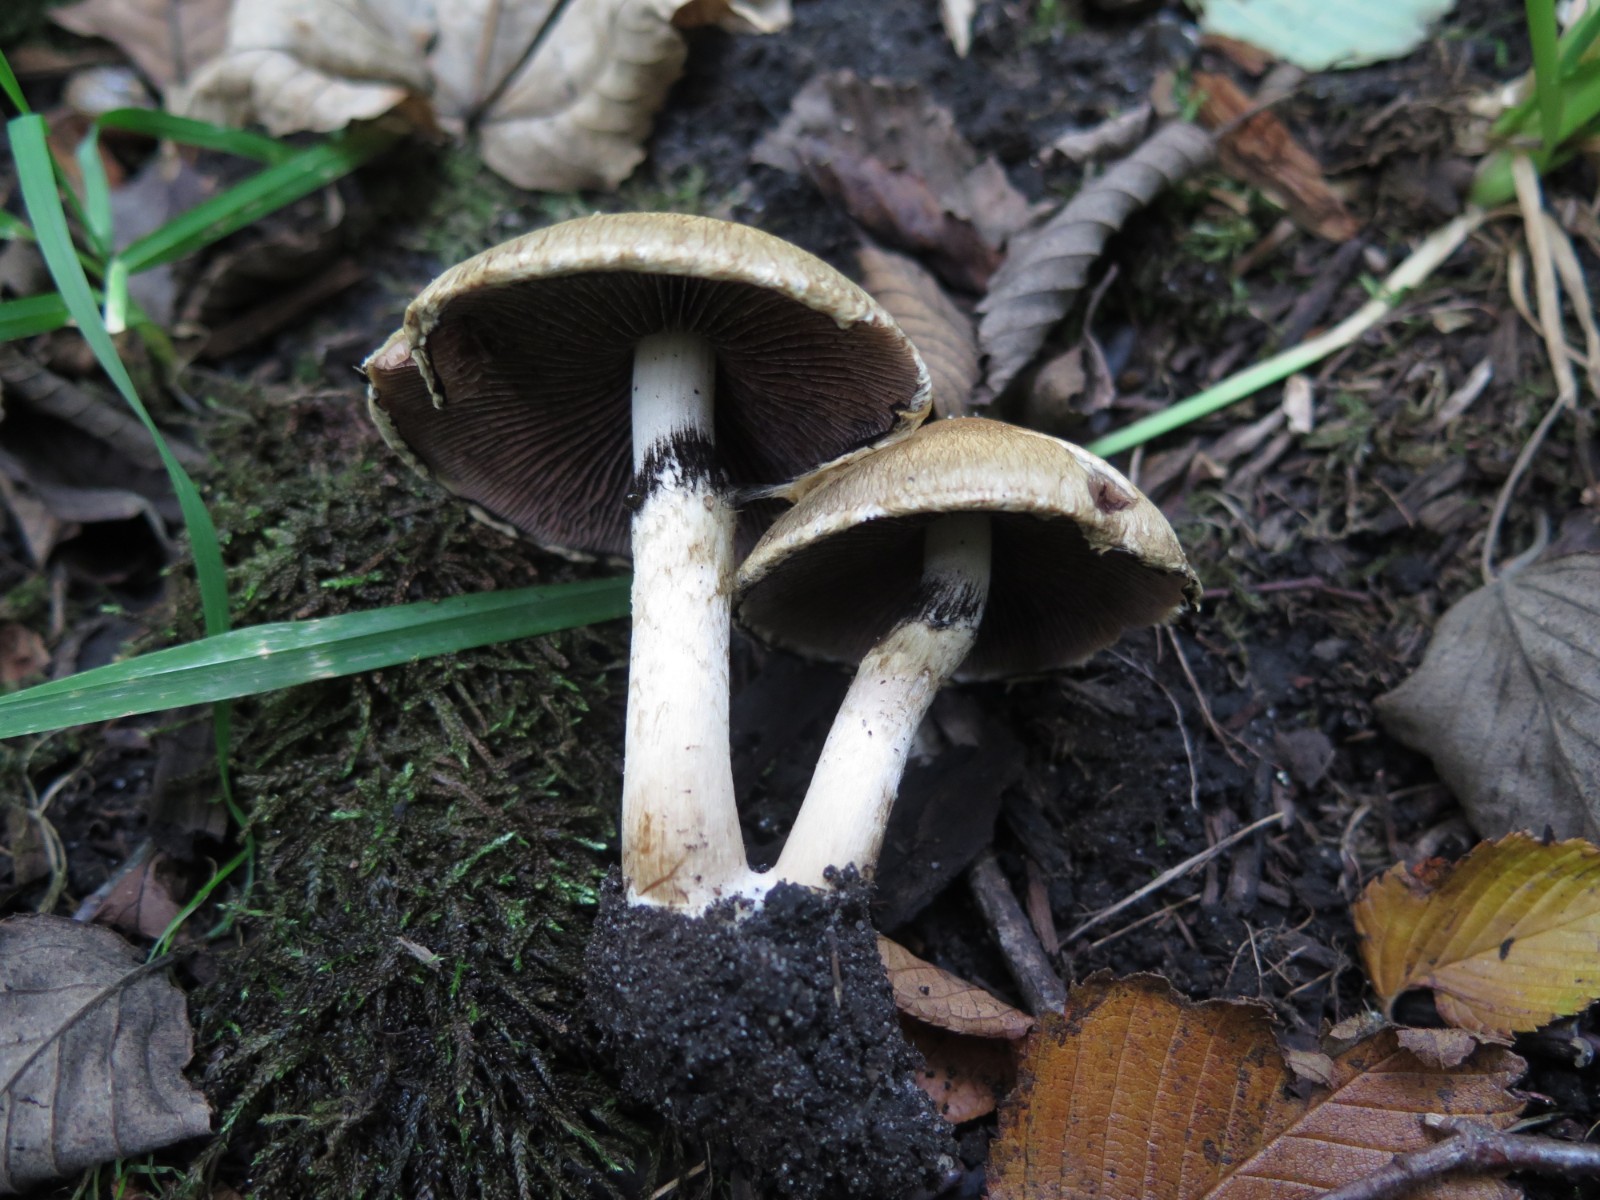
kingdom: Fungi
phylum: Basidiomycota
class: Agaricomycetes
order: Agaricales
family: Psathyrellaceae
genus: Lacrymaria
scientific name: Lacrymaria lacrymabunda
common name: grædende mørkhat
